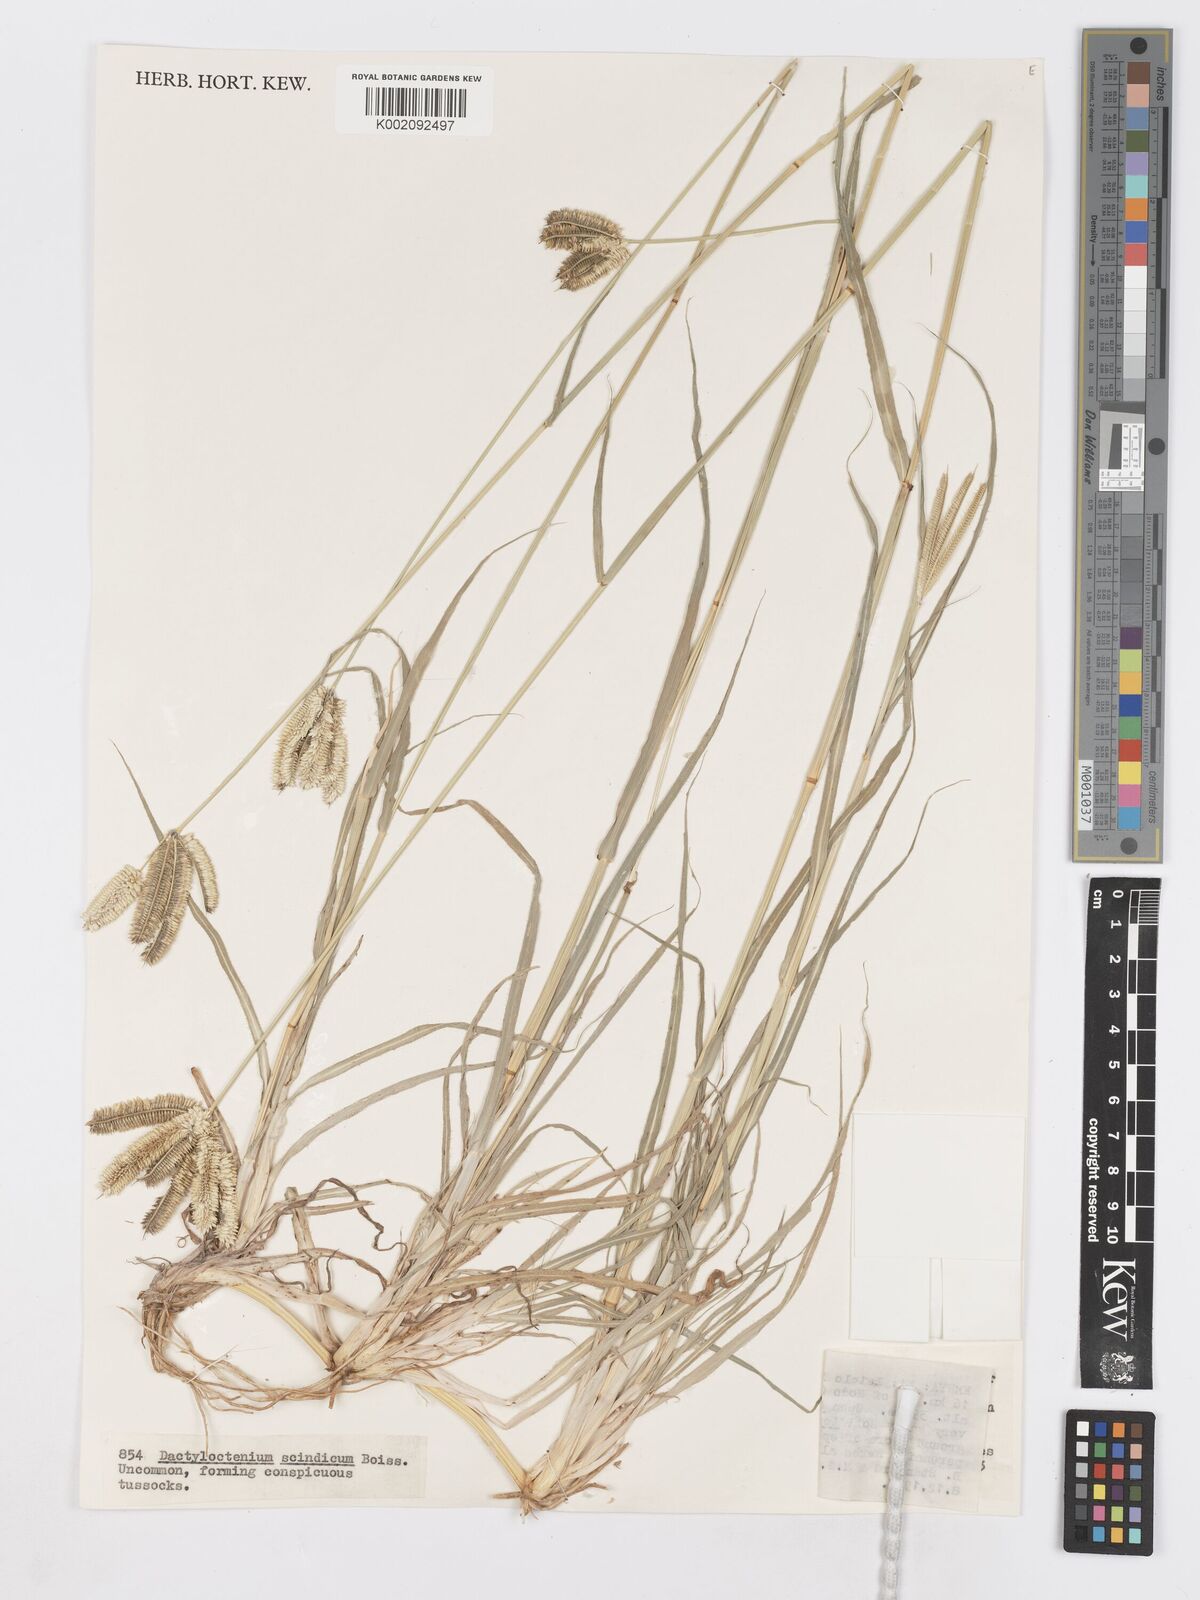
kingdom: Plantae
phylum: Tracheophyta
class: Liliopsida
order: Poales
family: Poaceae
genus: Dactyloctenium
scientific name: Dactyloctenium scindicum
